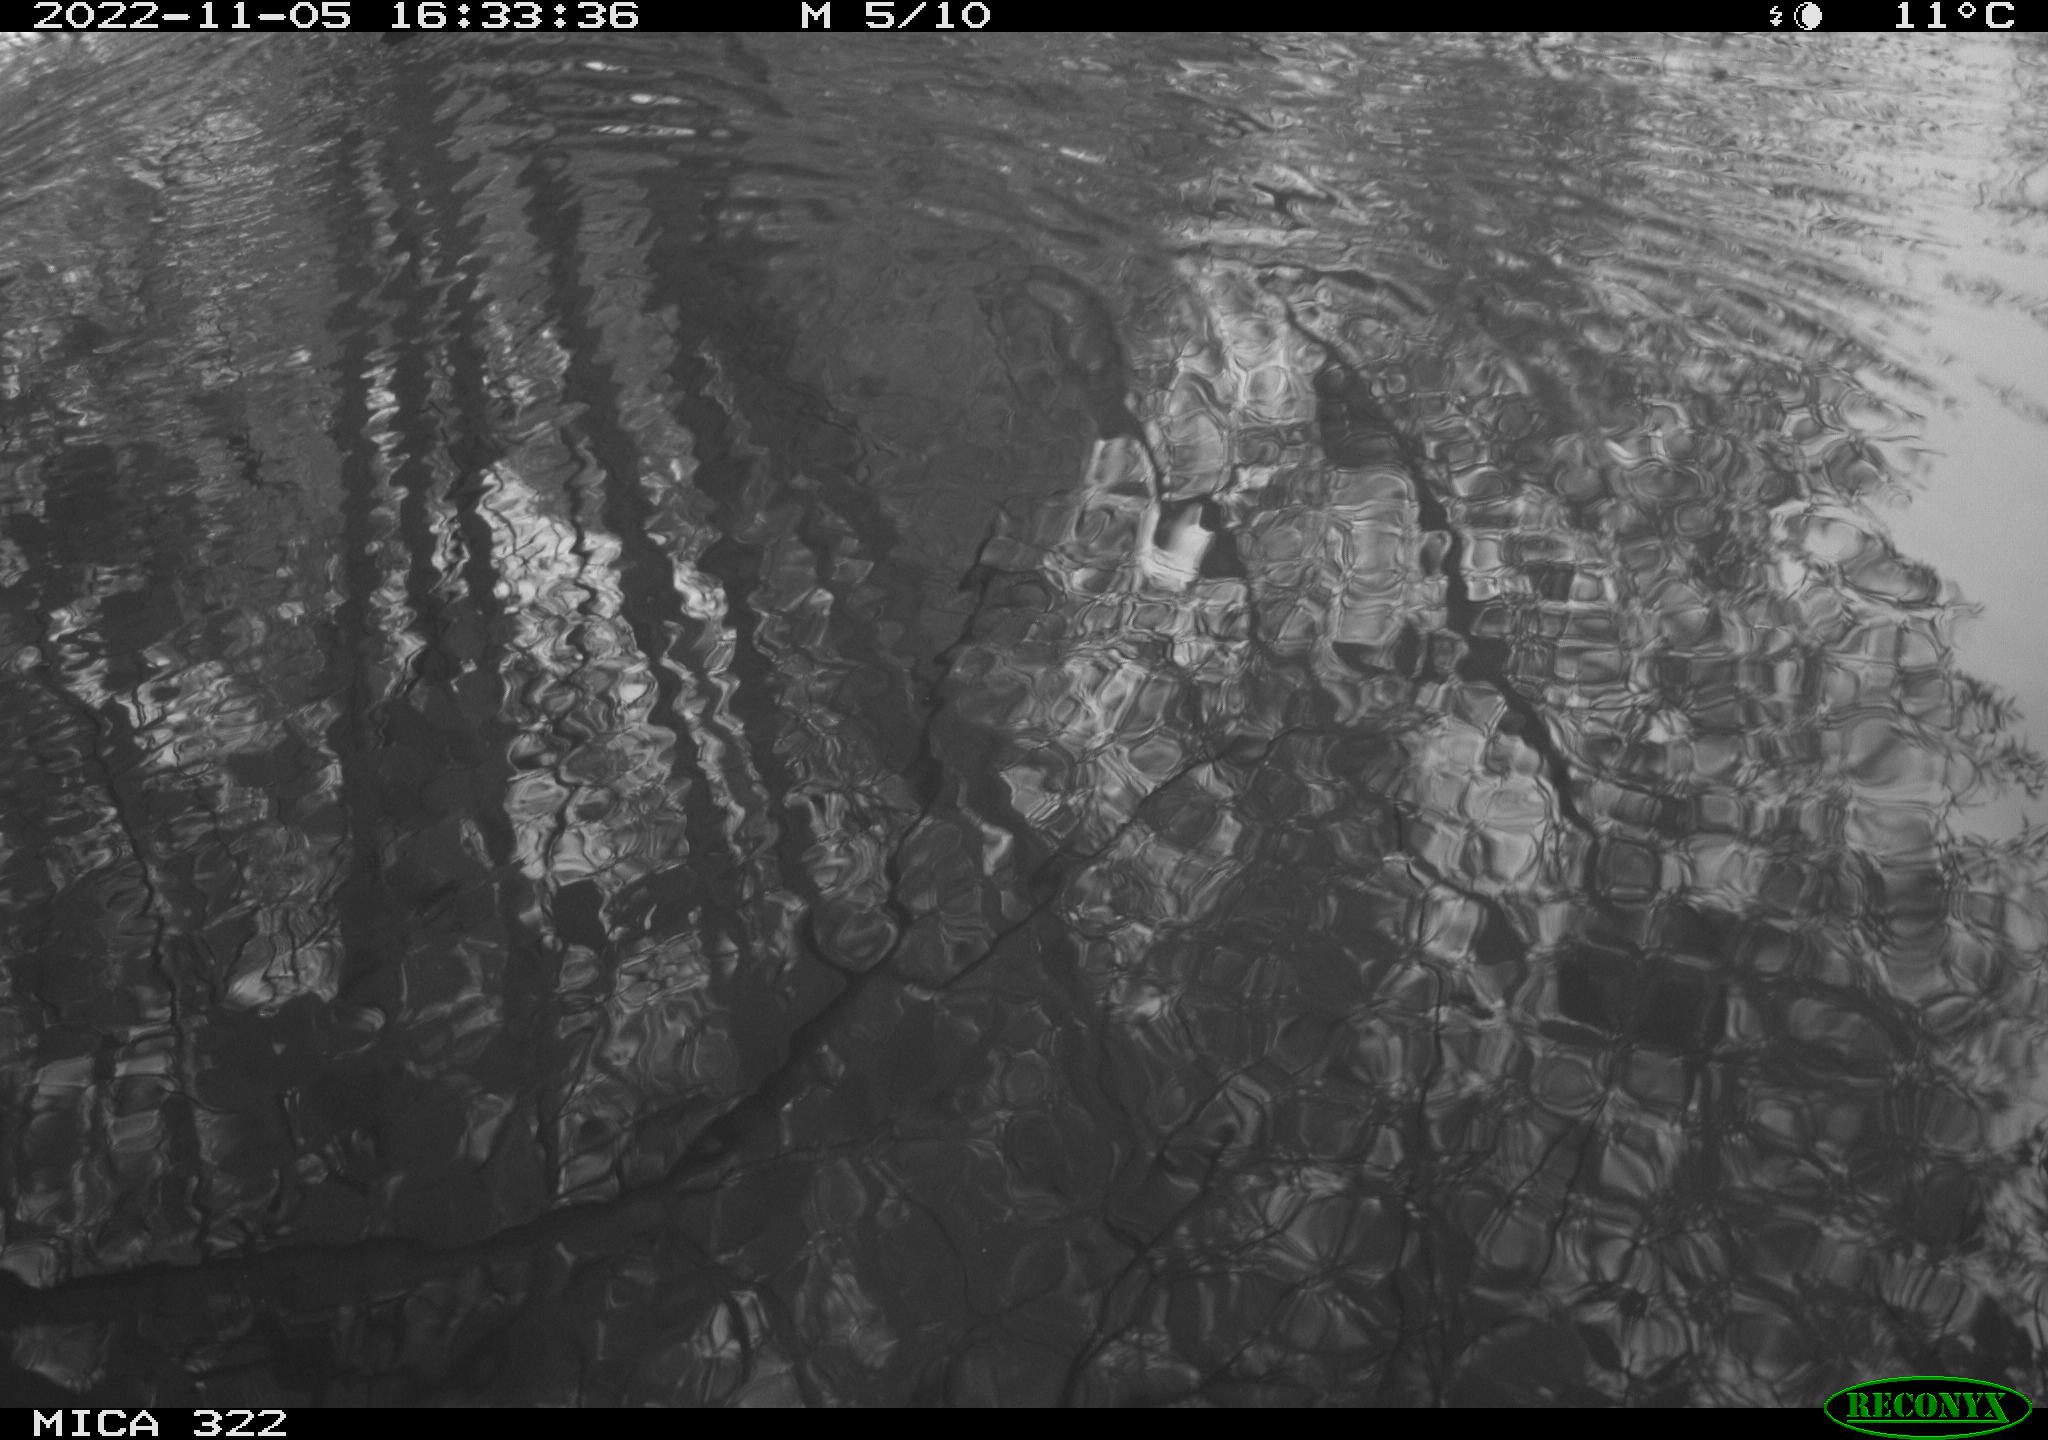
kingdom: Animalia
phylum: Chordata
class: Aves
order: Gruiformes
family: Rallidae
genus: Gallinula
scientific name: Gallinula chloropus
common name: Common moorhen
